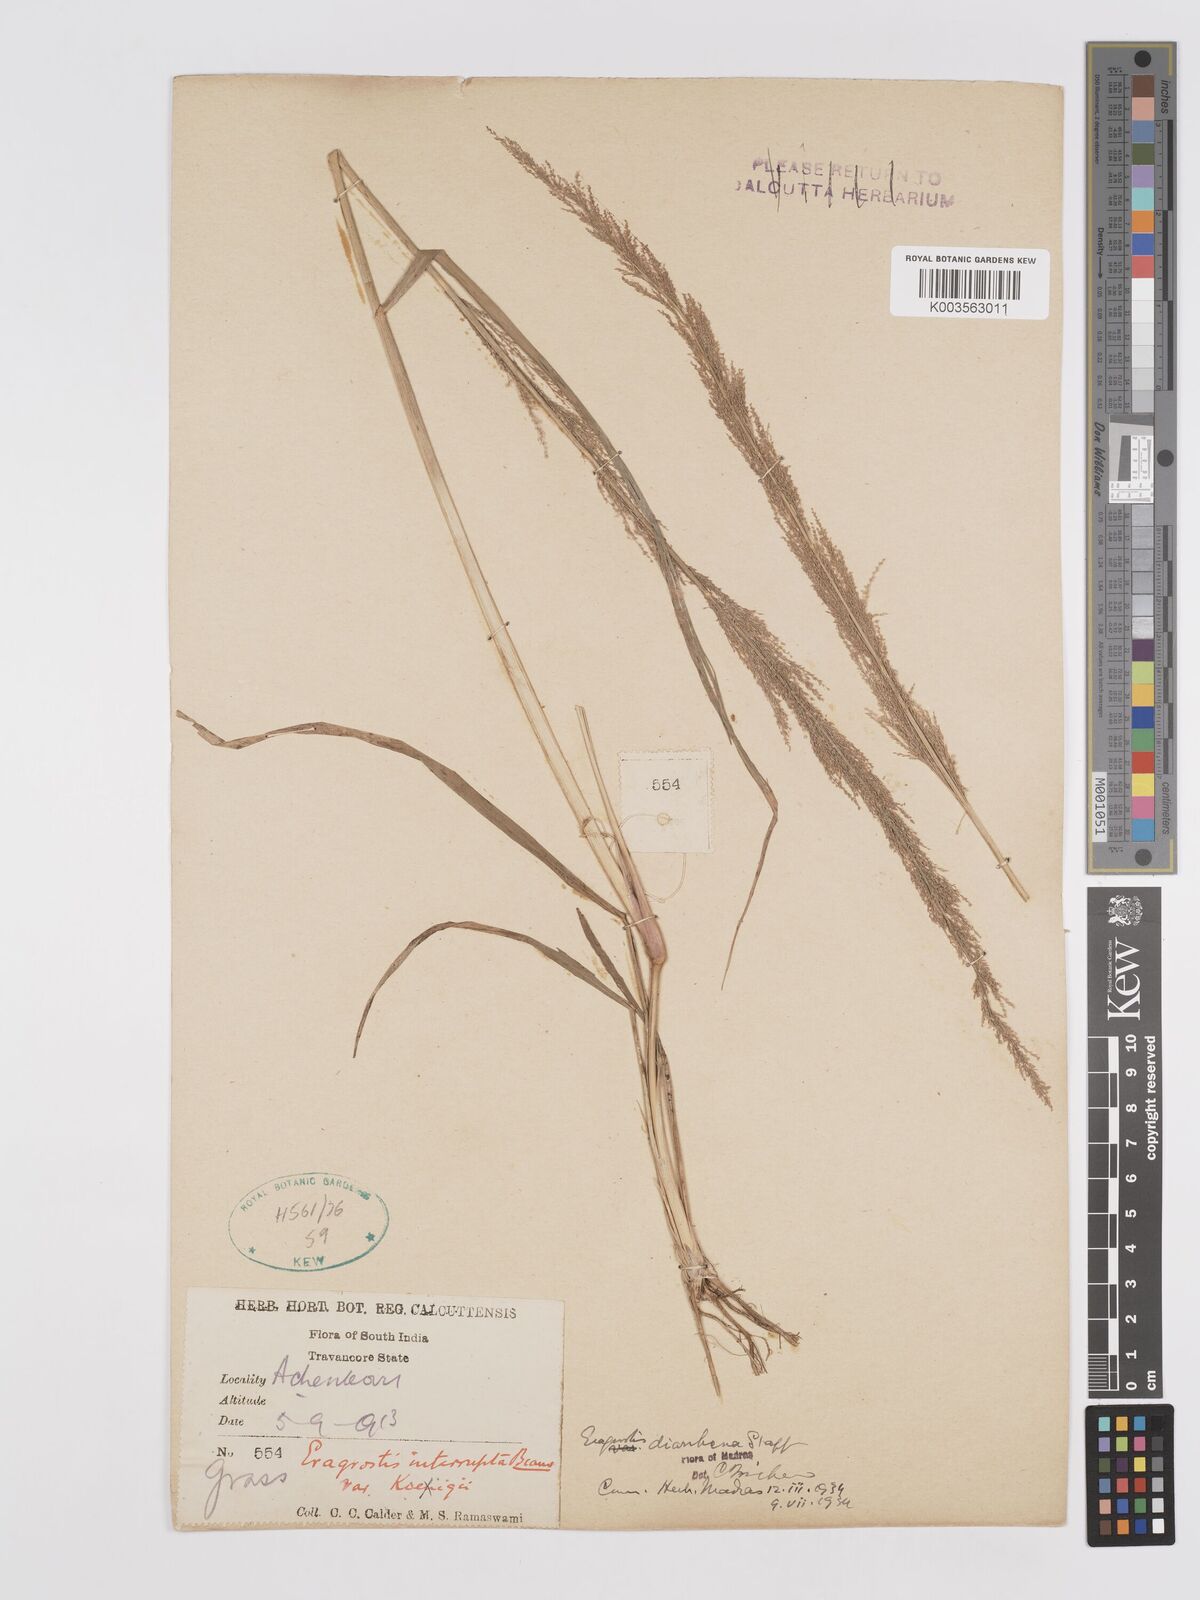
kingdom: Plantae
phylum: Tracheophyta
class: Liliopsida
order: Poales
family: Poaceae
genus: Eragrostis
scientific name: Eragrostis japonica
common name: Pond lovegrass
